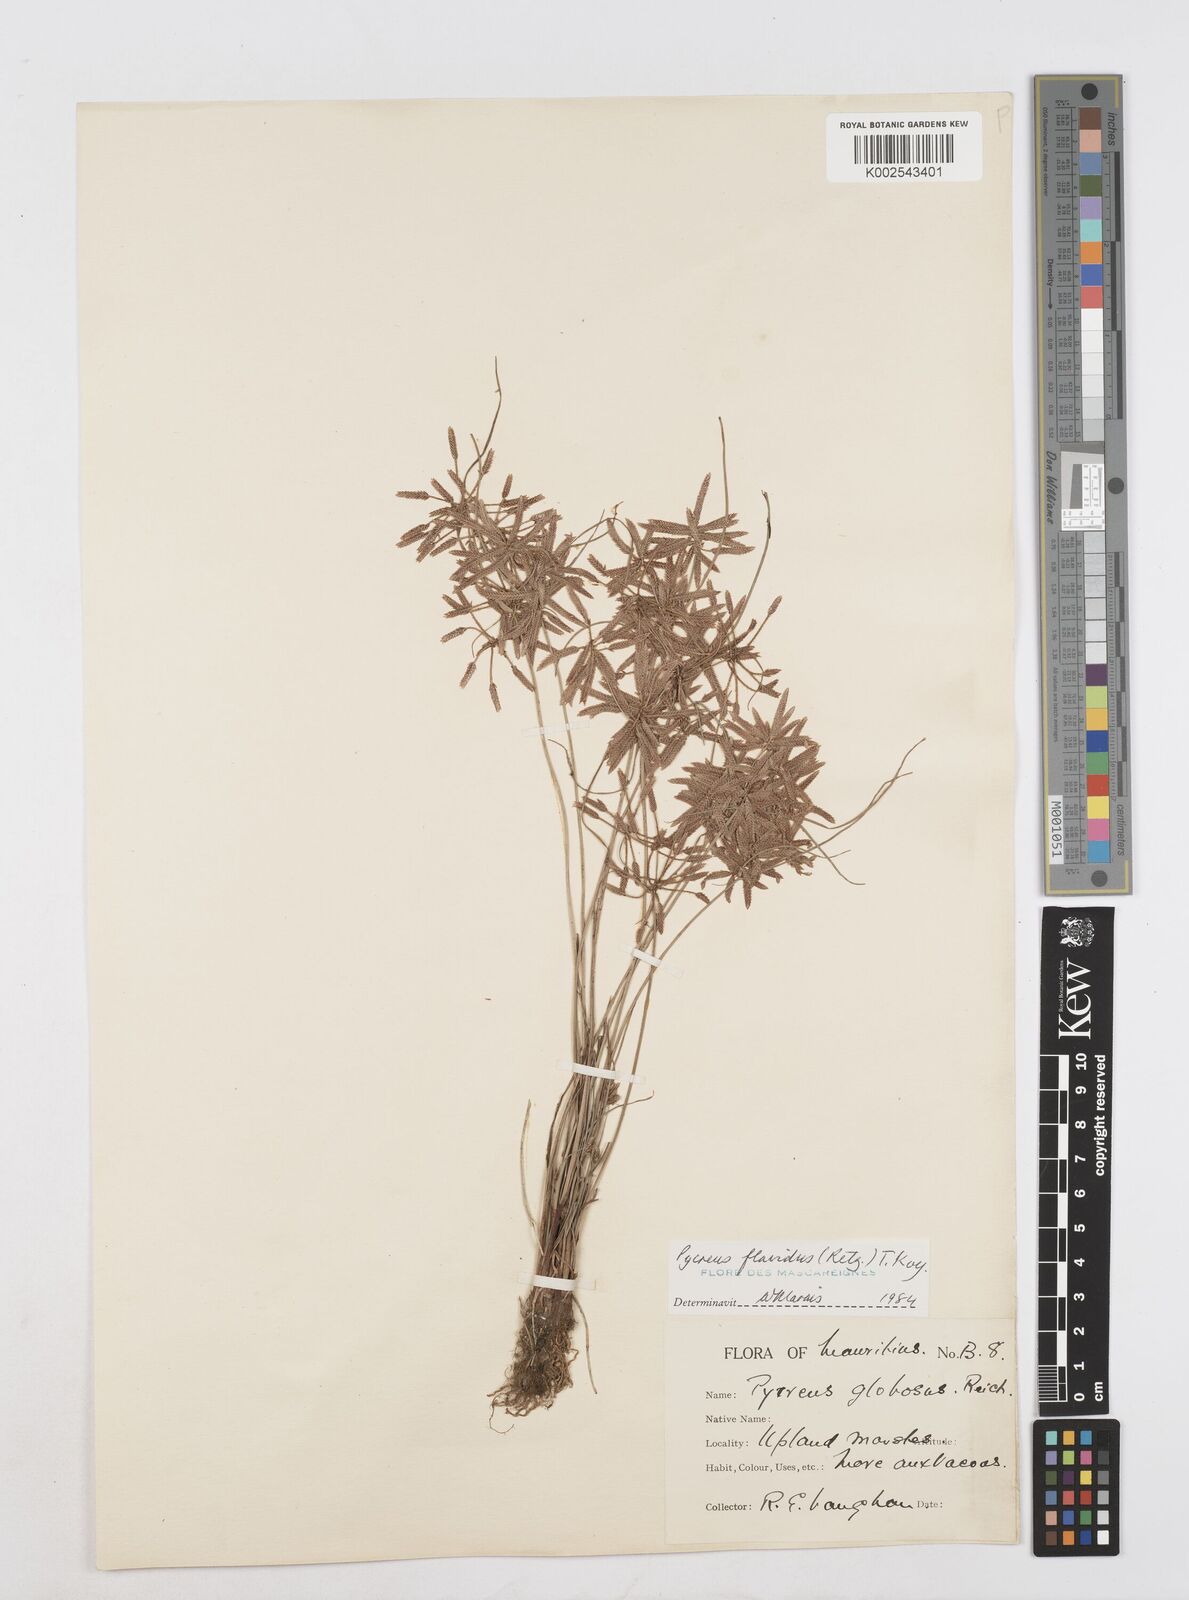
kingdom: Plantae
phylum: Tracheophyta
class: Liliopsida
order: Poales
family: Cyperaceae
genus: Cyperus
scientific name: Cyperus flavidus
